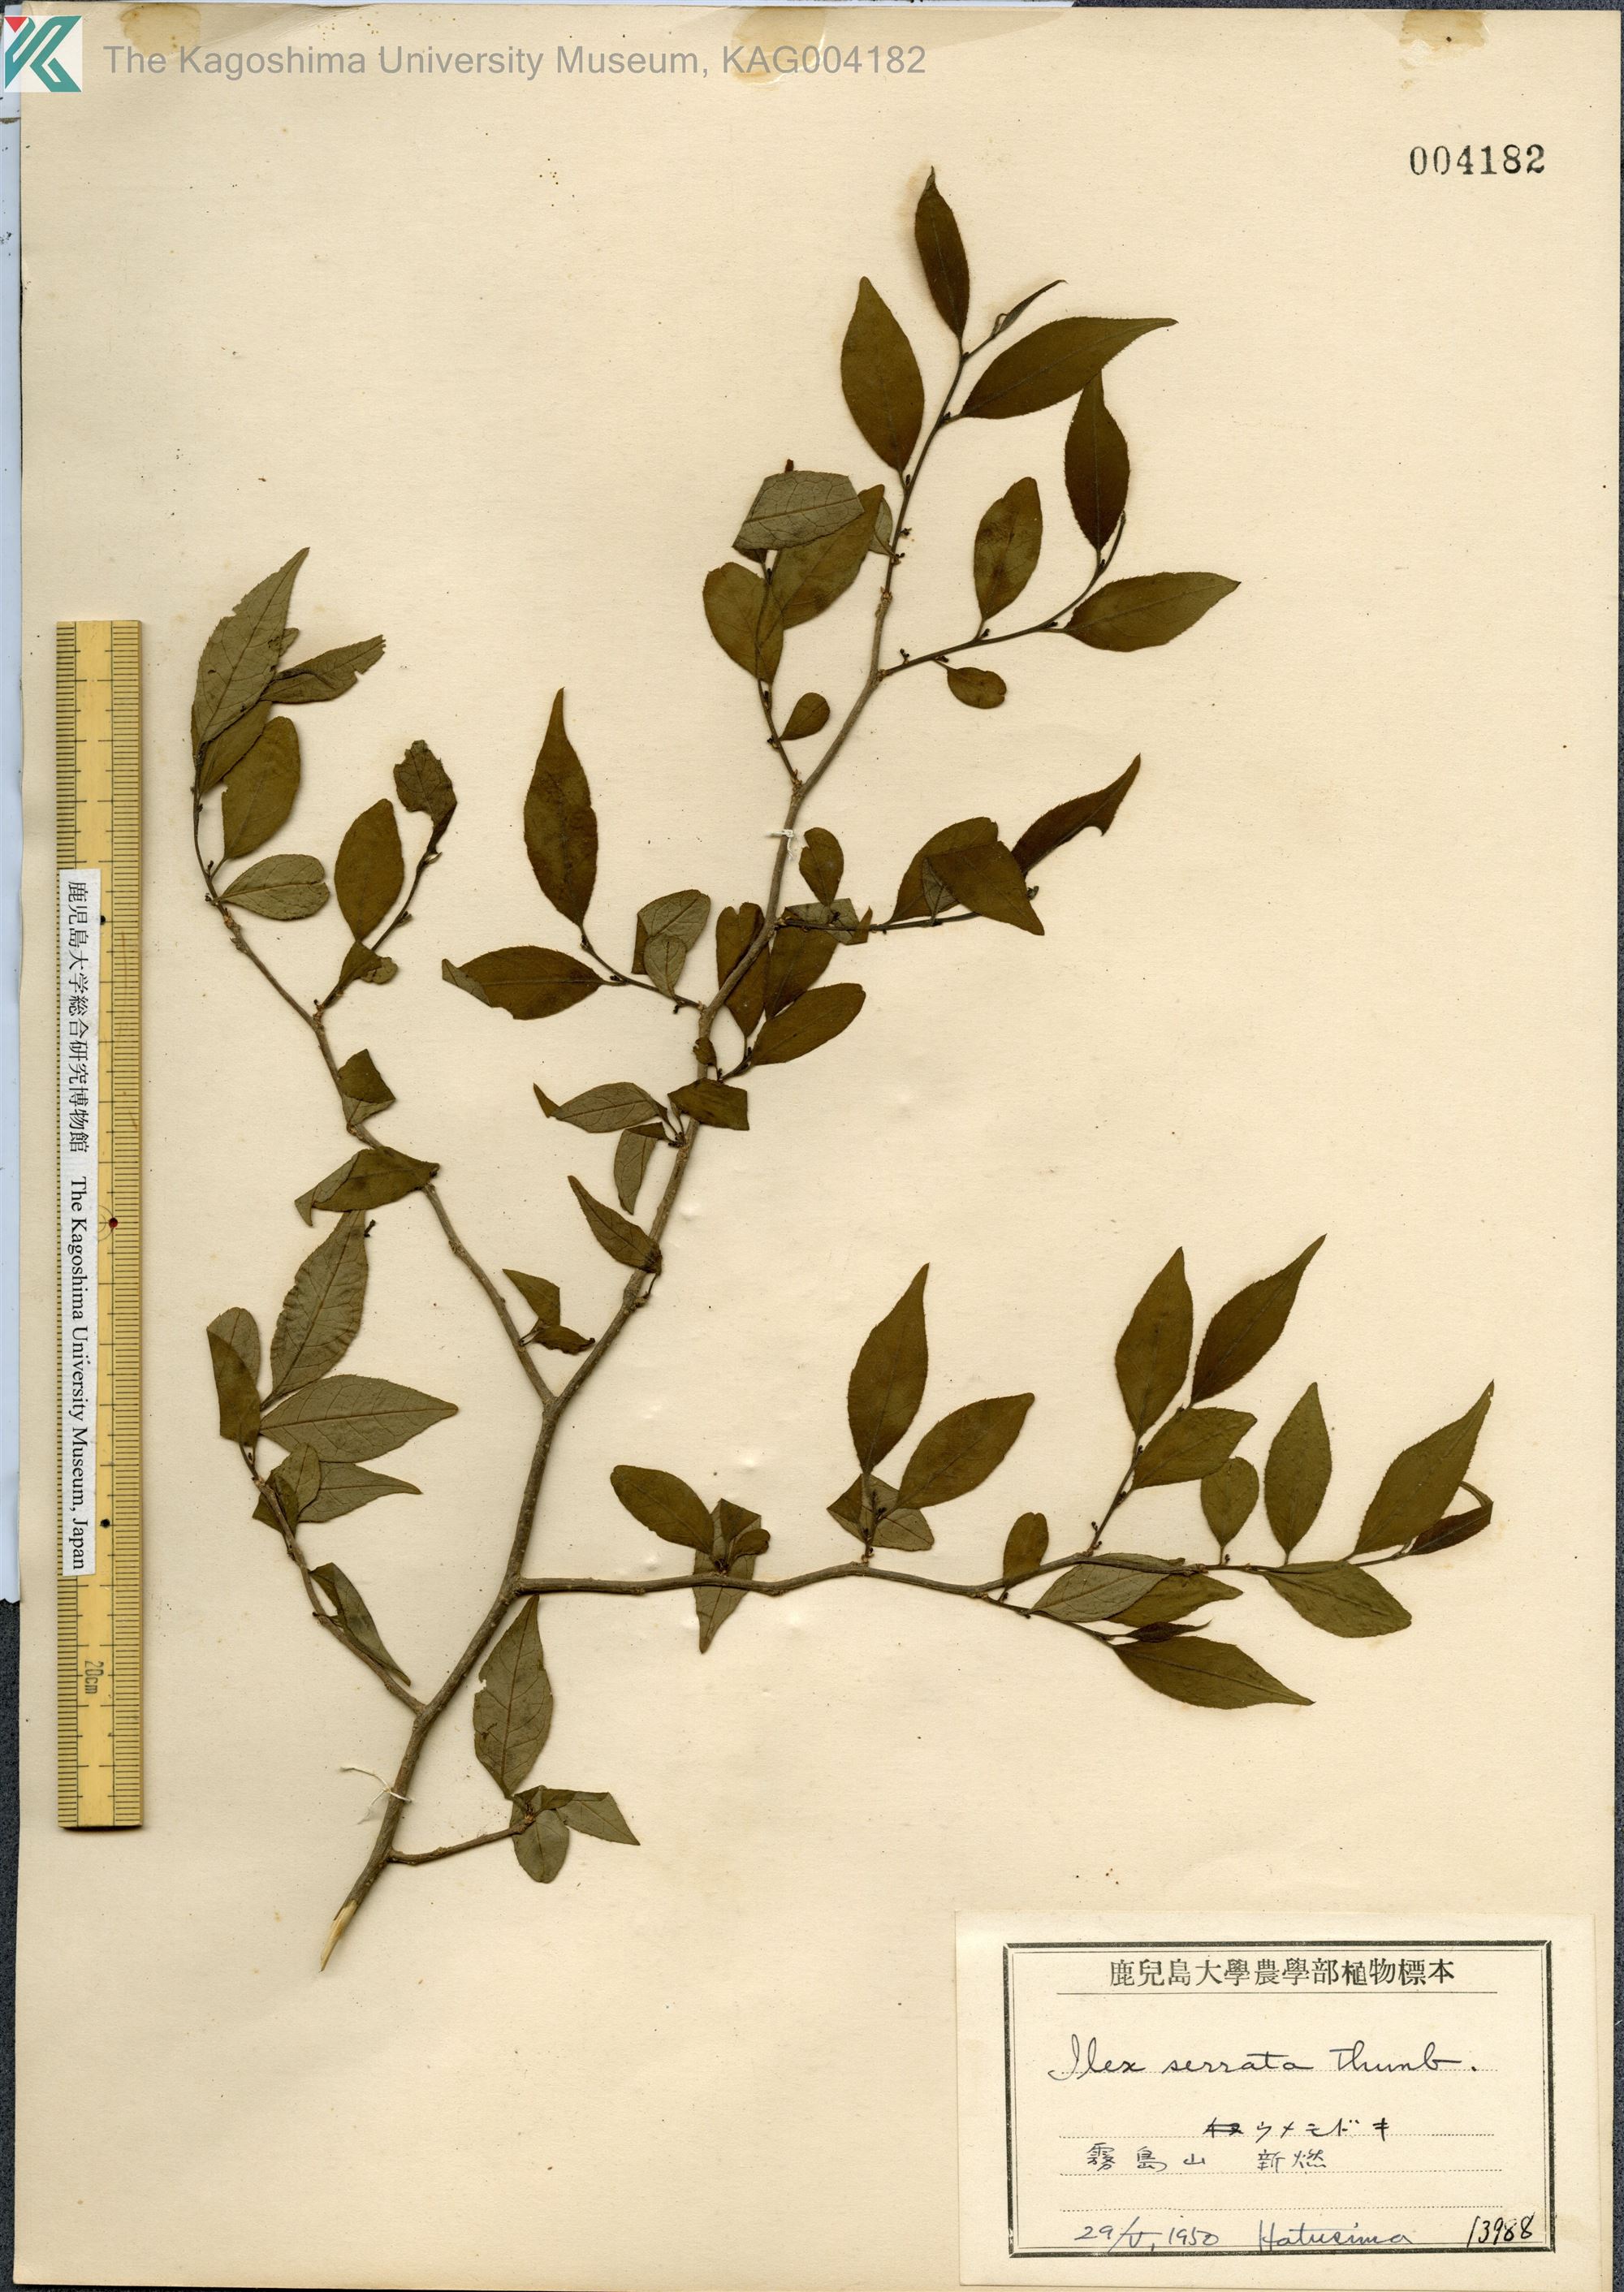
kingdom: Plantae
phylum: Tracheophyta
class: Magnoliopsida
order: Aquifoliales
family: Aquifoliaceae
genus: Ilex
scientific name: Ilex serrata
